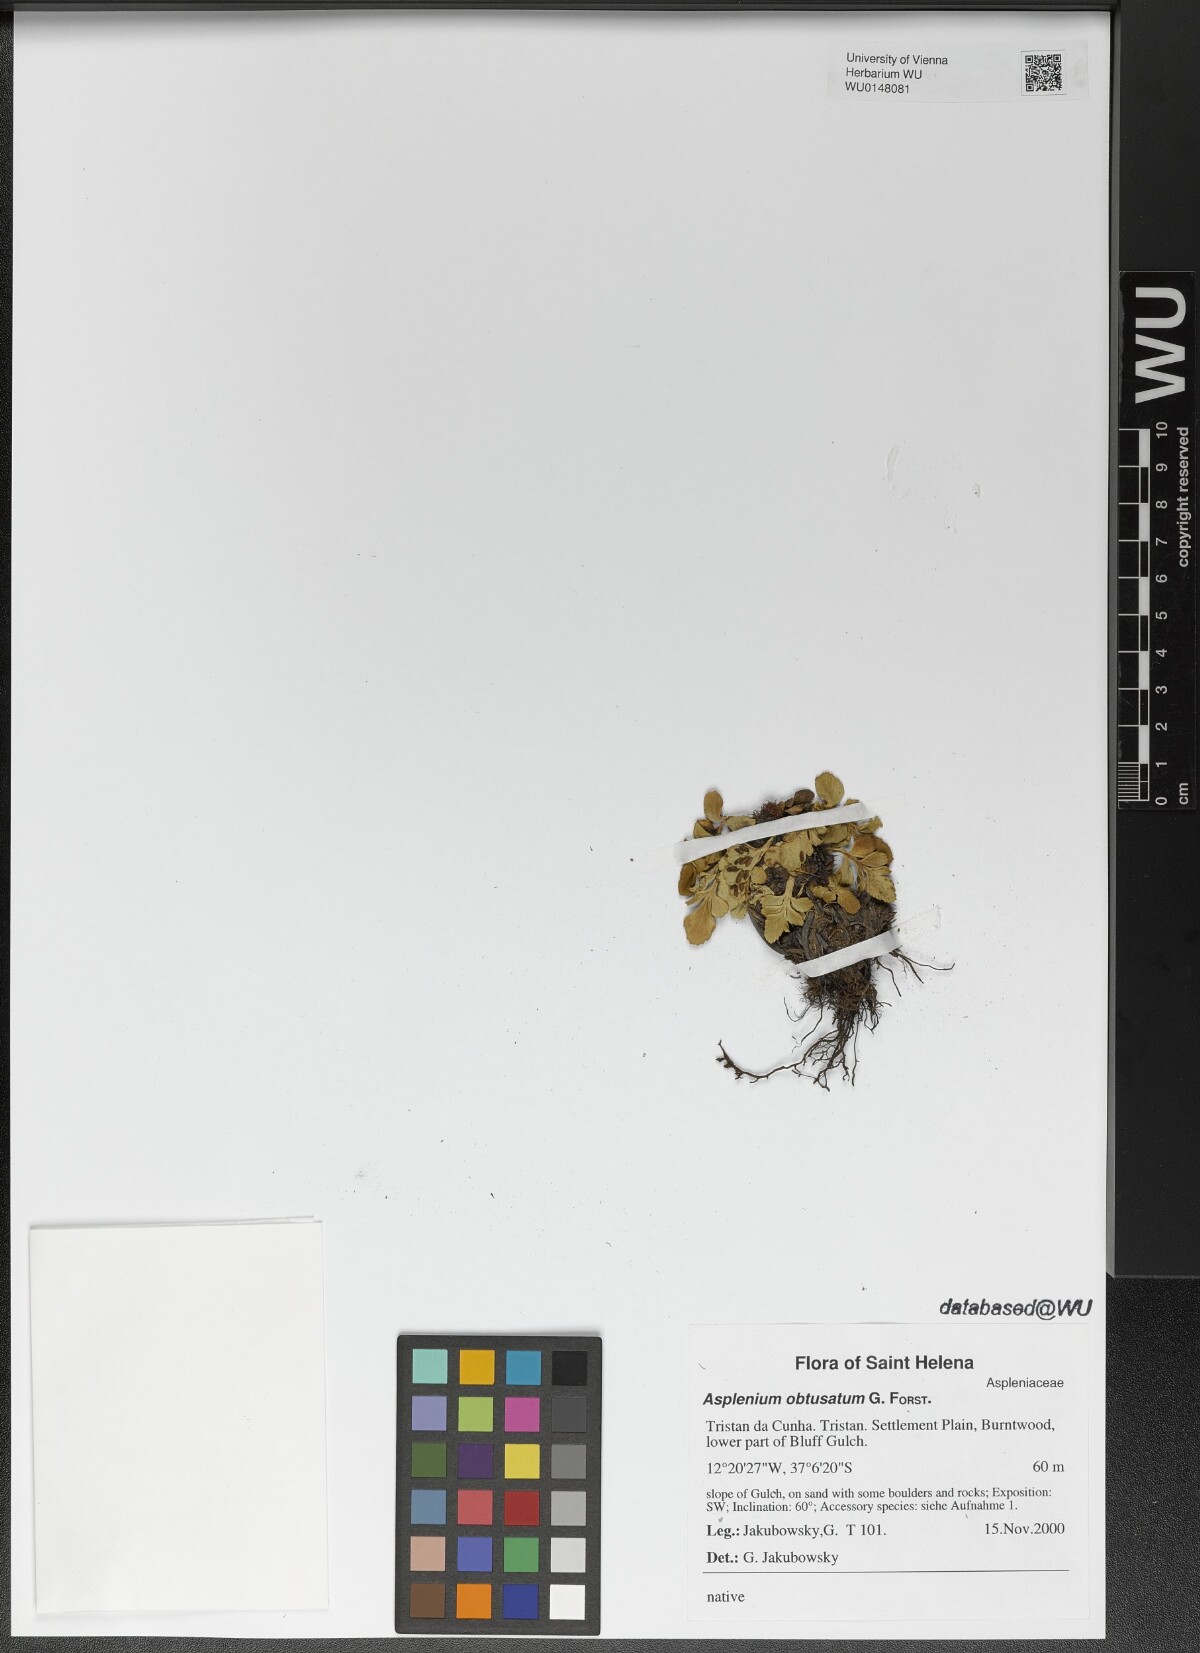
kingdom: Plantae
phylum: Tracheophyta
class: Polypodiopsida
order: Polypodiales
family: Aspleniaceae
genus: Asplenium
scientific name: Asplenium obtusatum
